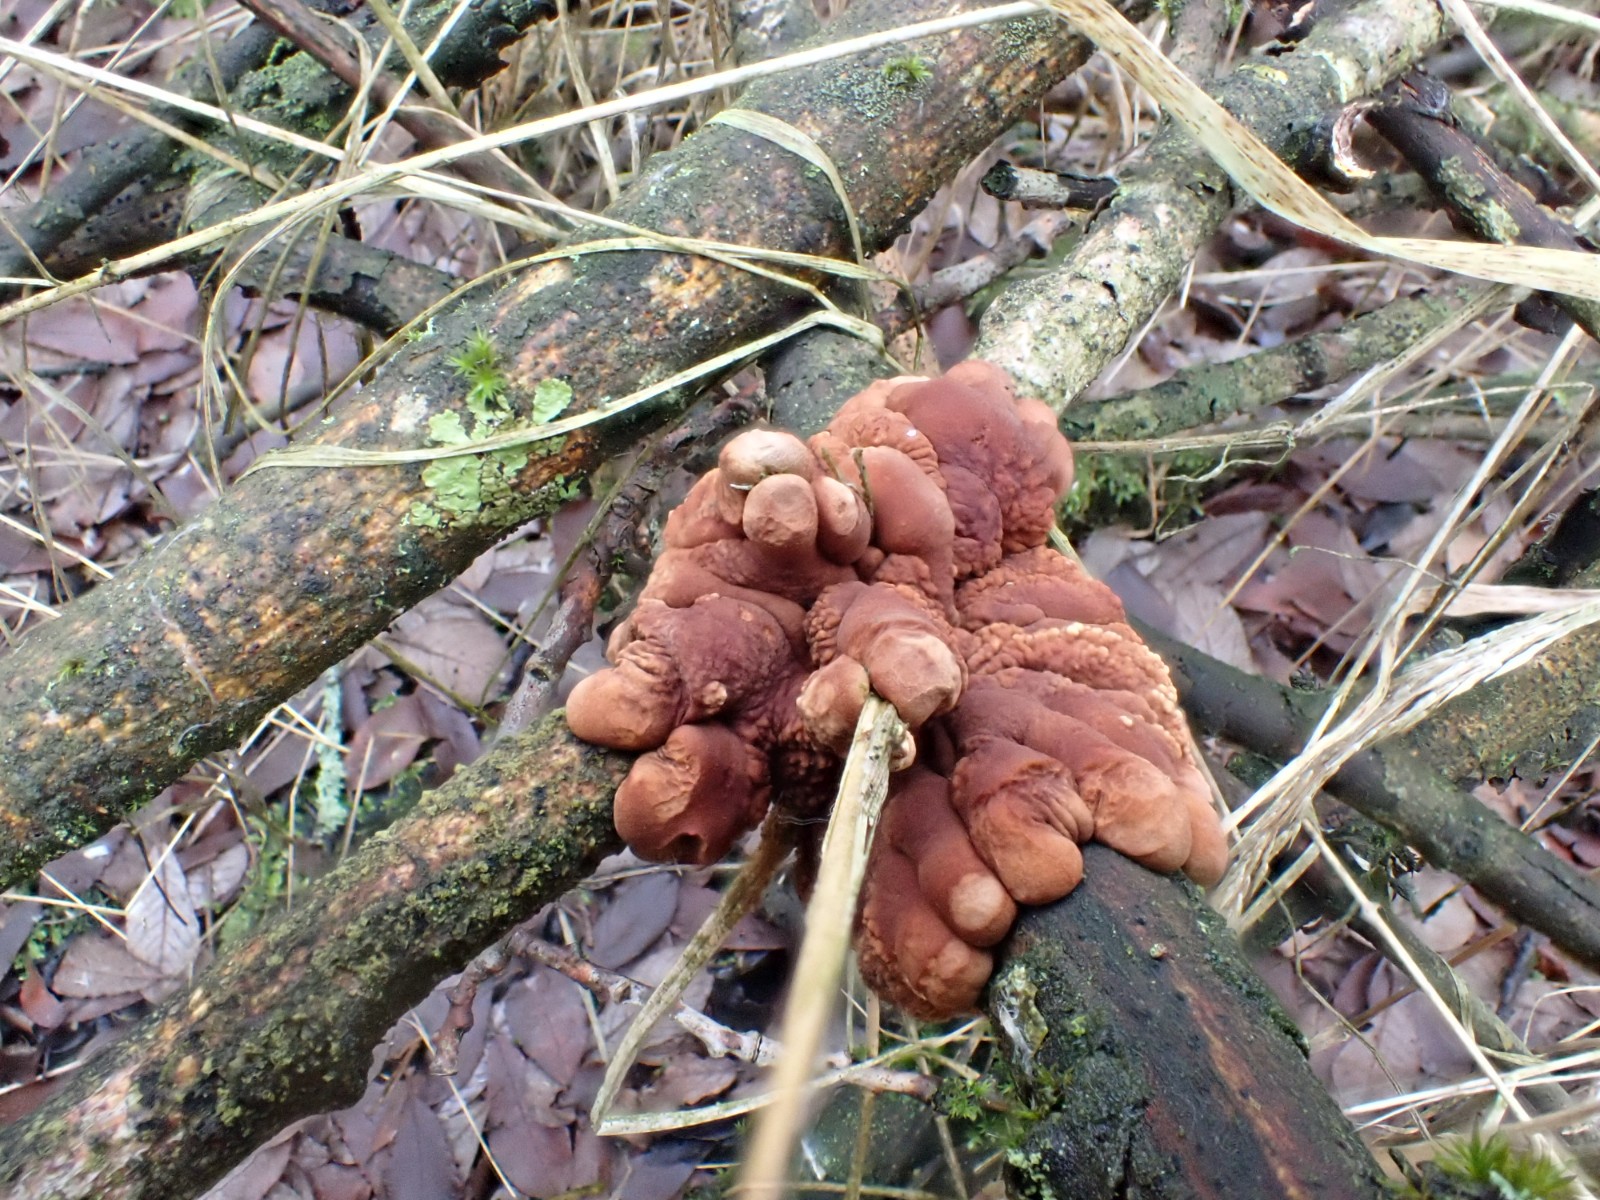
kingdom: Fungi
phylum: Ascomycota
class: Sordariomycetes
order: Hypocreales
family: Hypocreaceae
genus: Hypocreopsis
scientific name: Hypocreopsis lichenoides
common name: pilfinger
